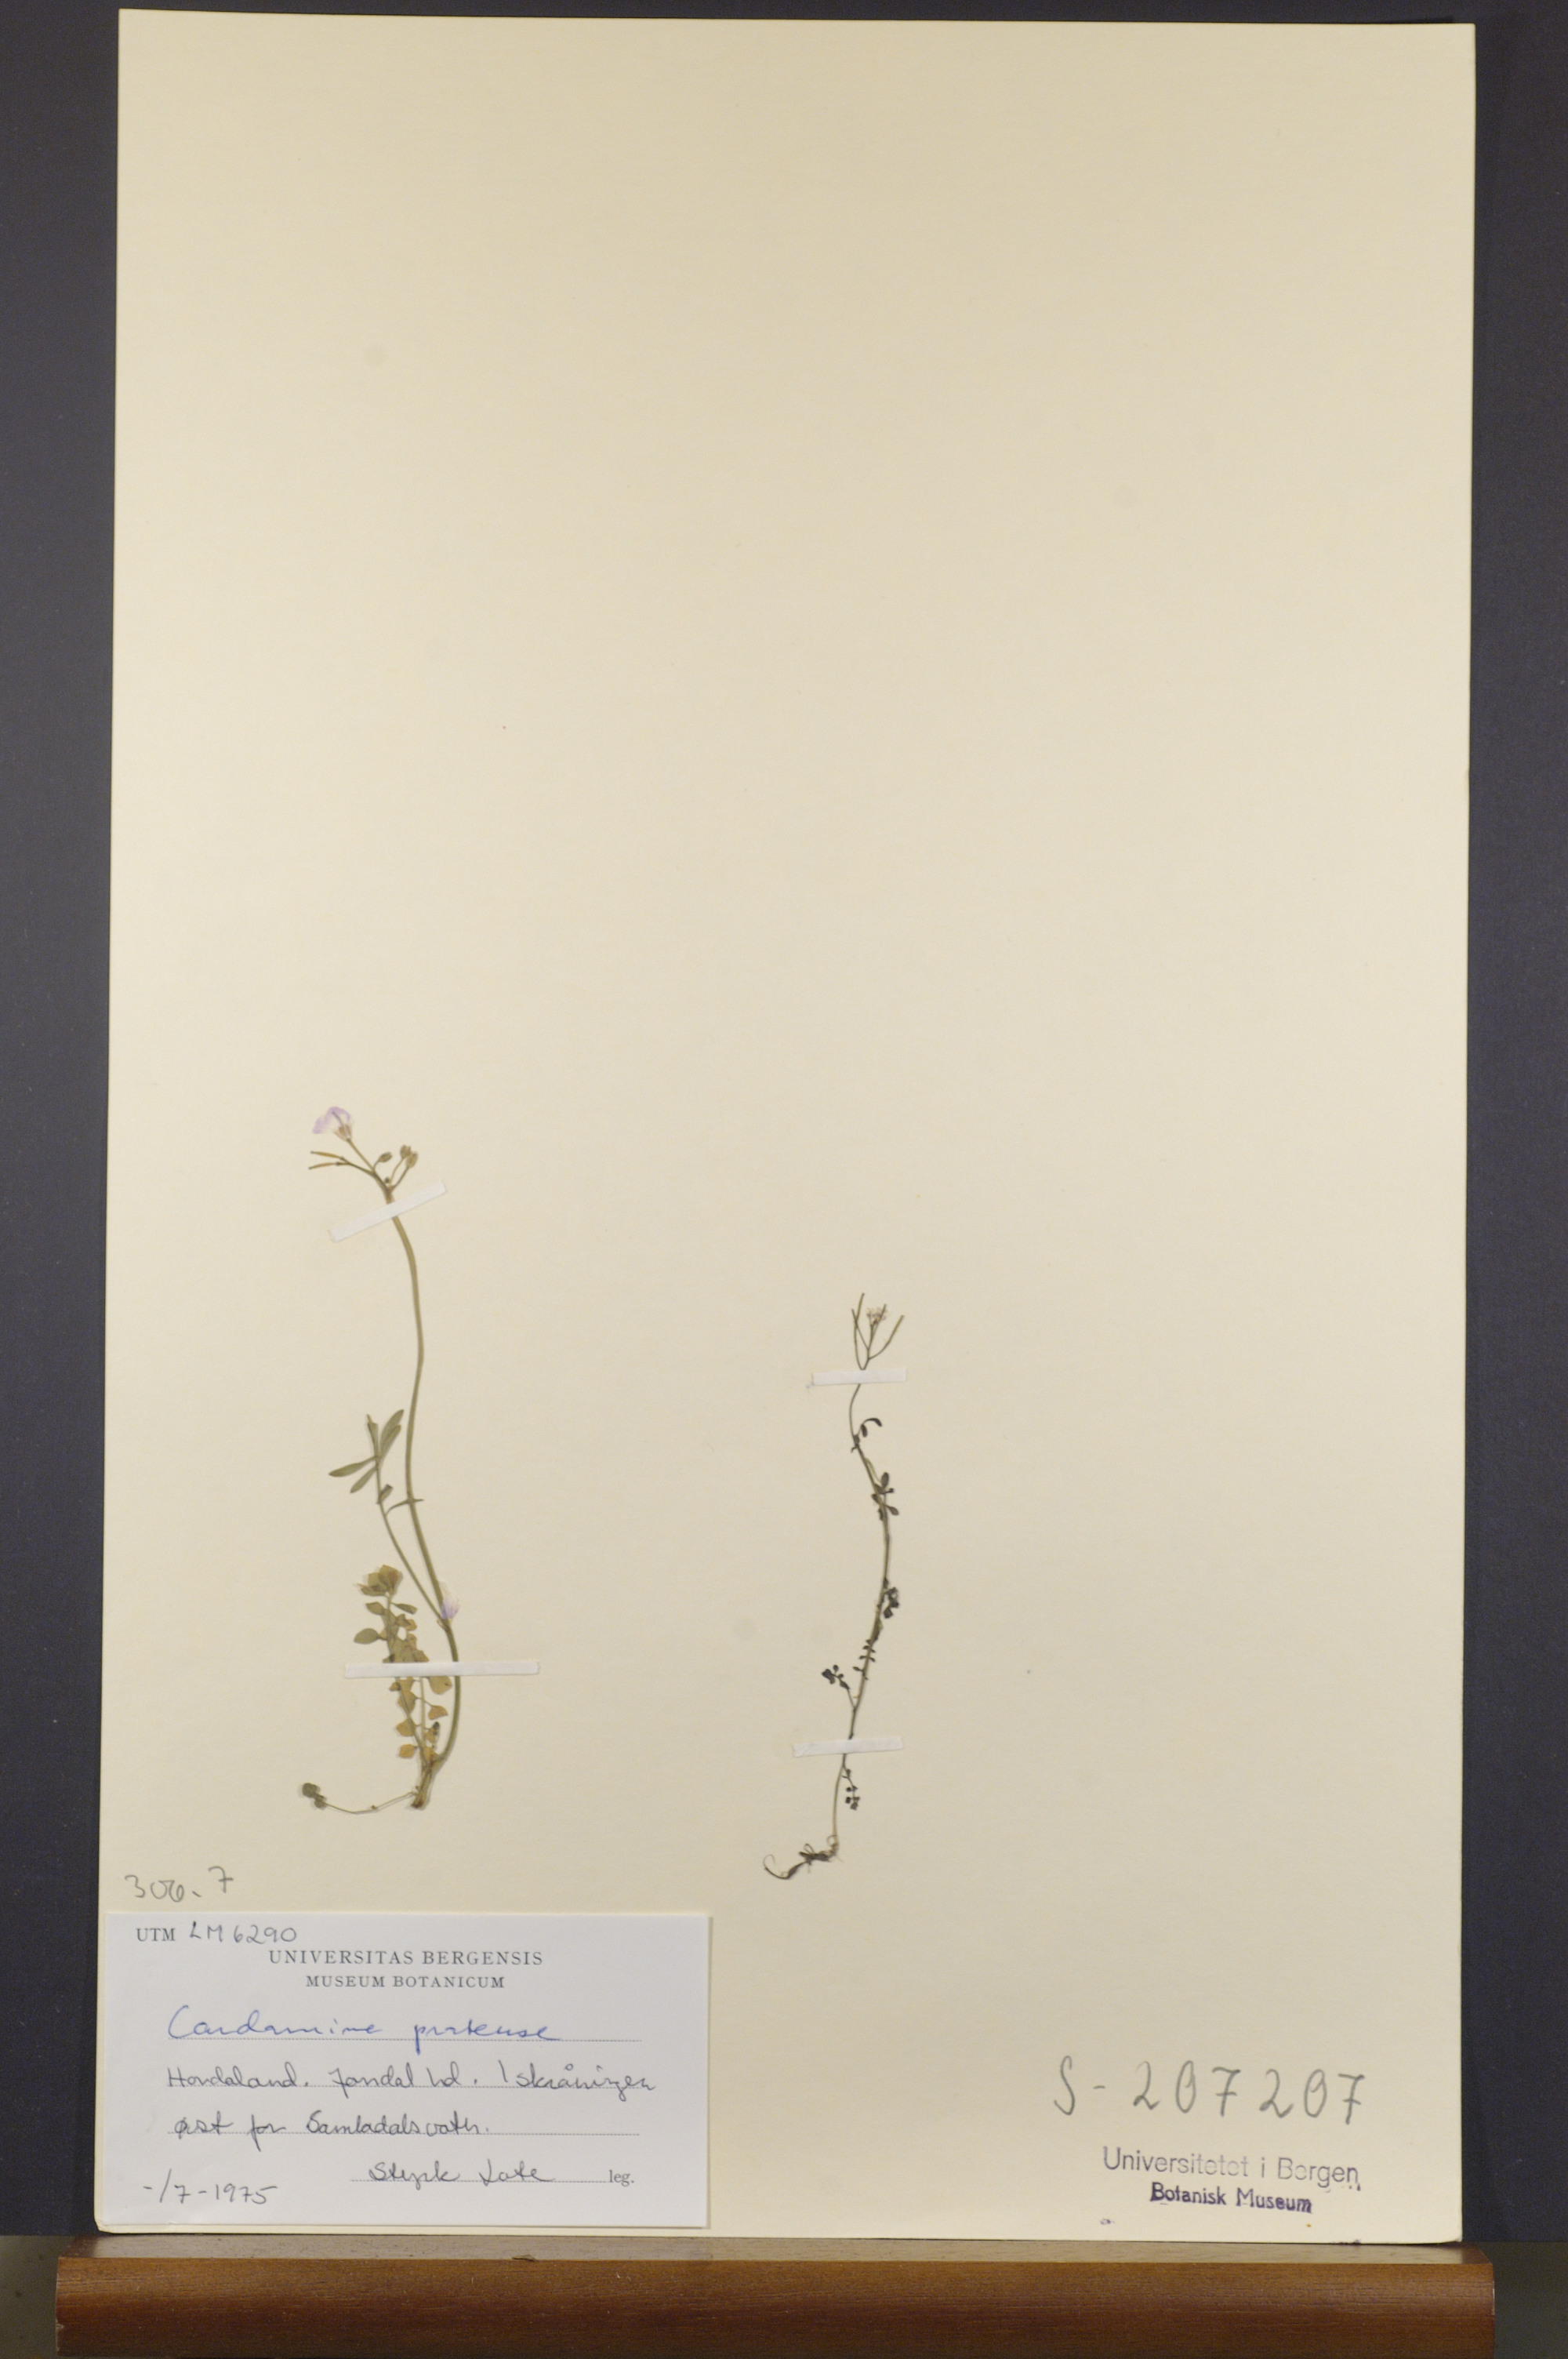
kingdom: Plantae
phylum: Tracheophyta
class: Magnoliopsida
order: Brassicales
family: Brassicaceae
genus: Cardamine
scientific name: Cardamine pratensis
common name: Cuckoo flower
